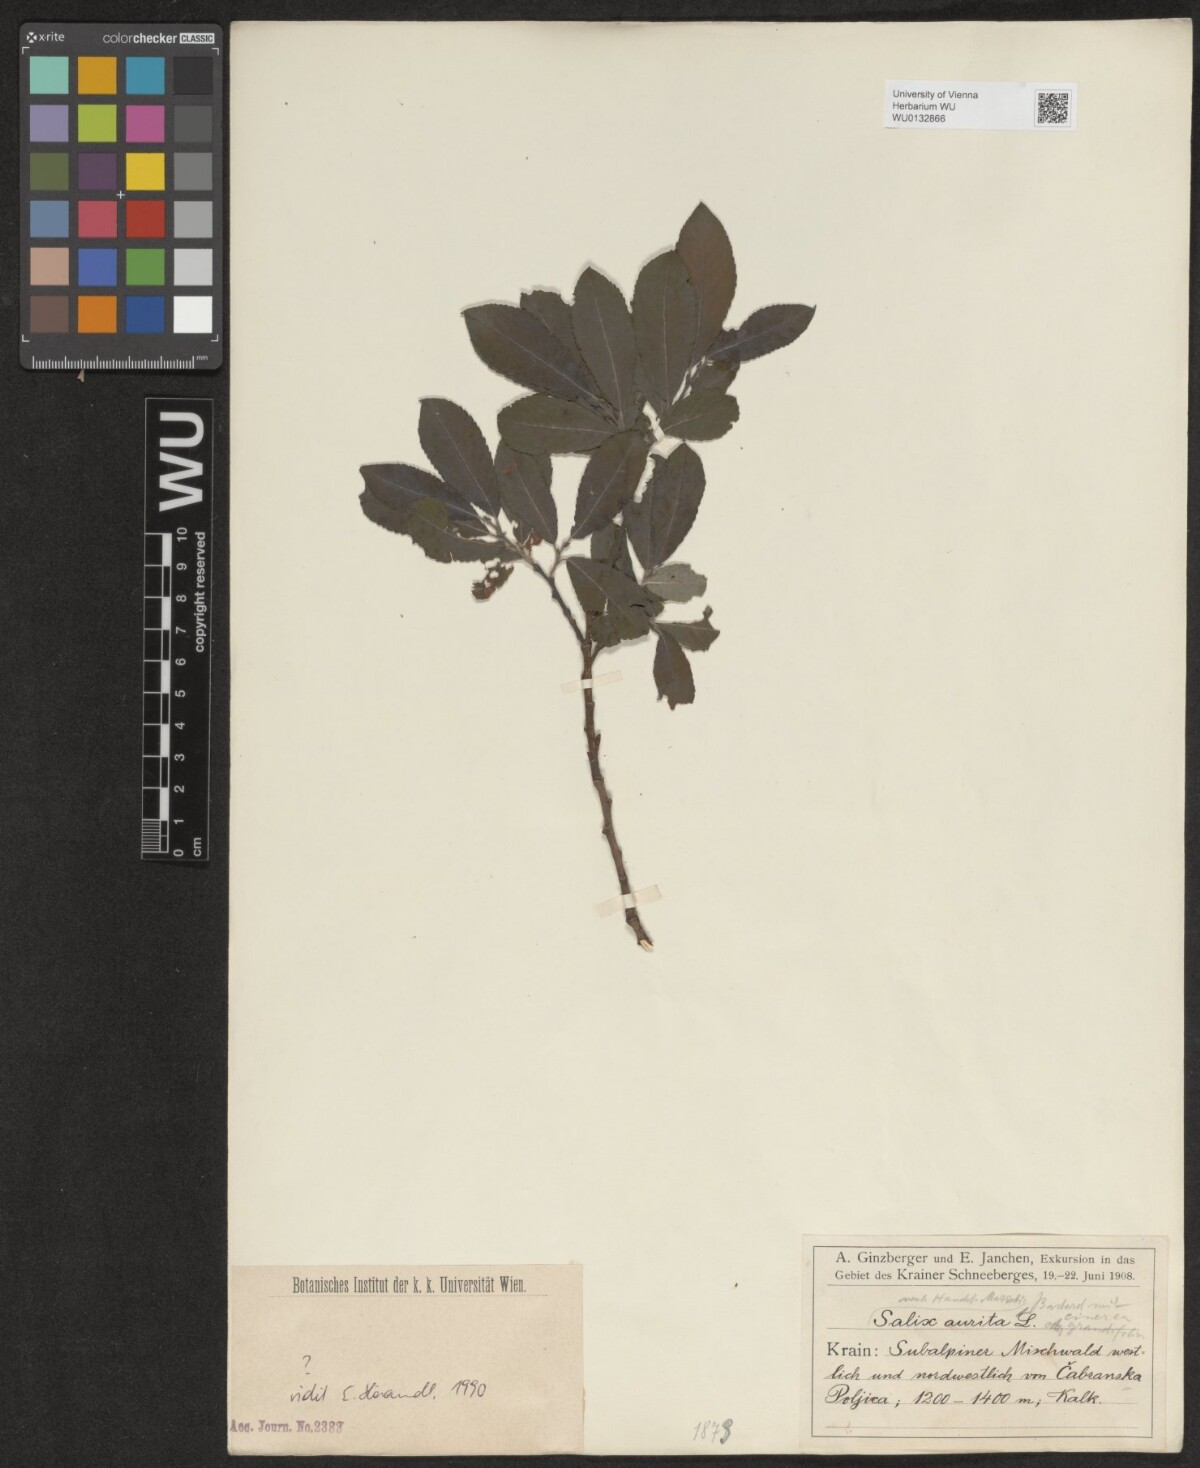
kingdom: Plantae
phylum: Tracheophyta
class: Magnoliopsida
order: Malpighiales
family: Salicaceae
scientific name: Salicaceae
